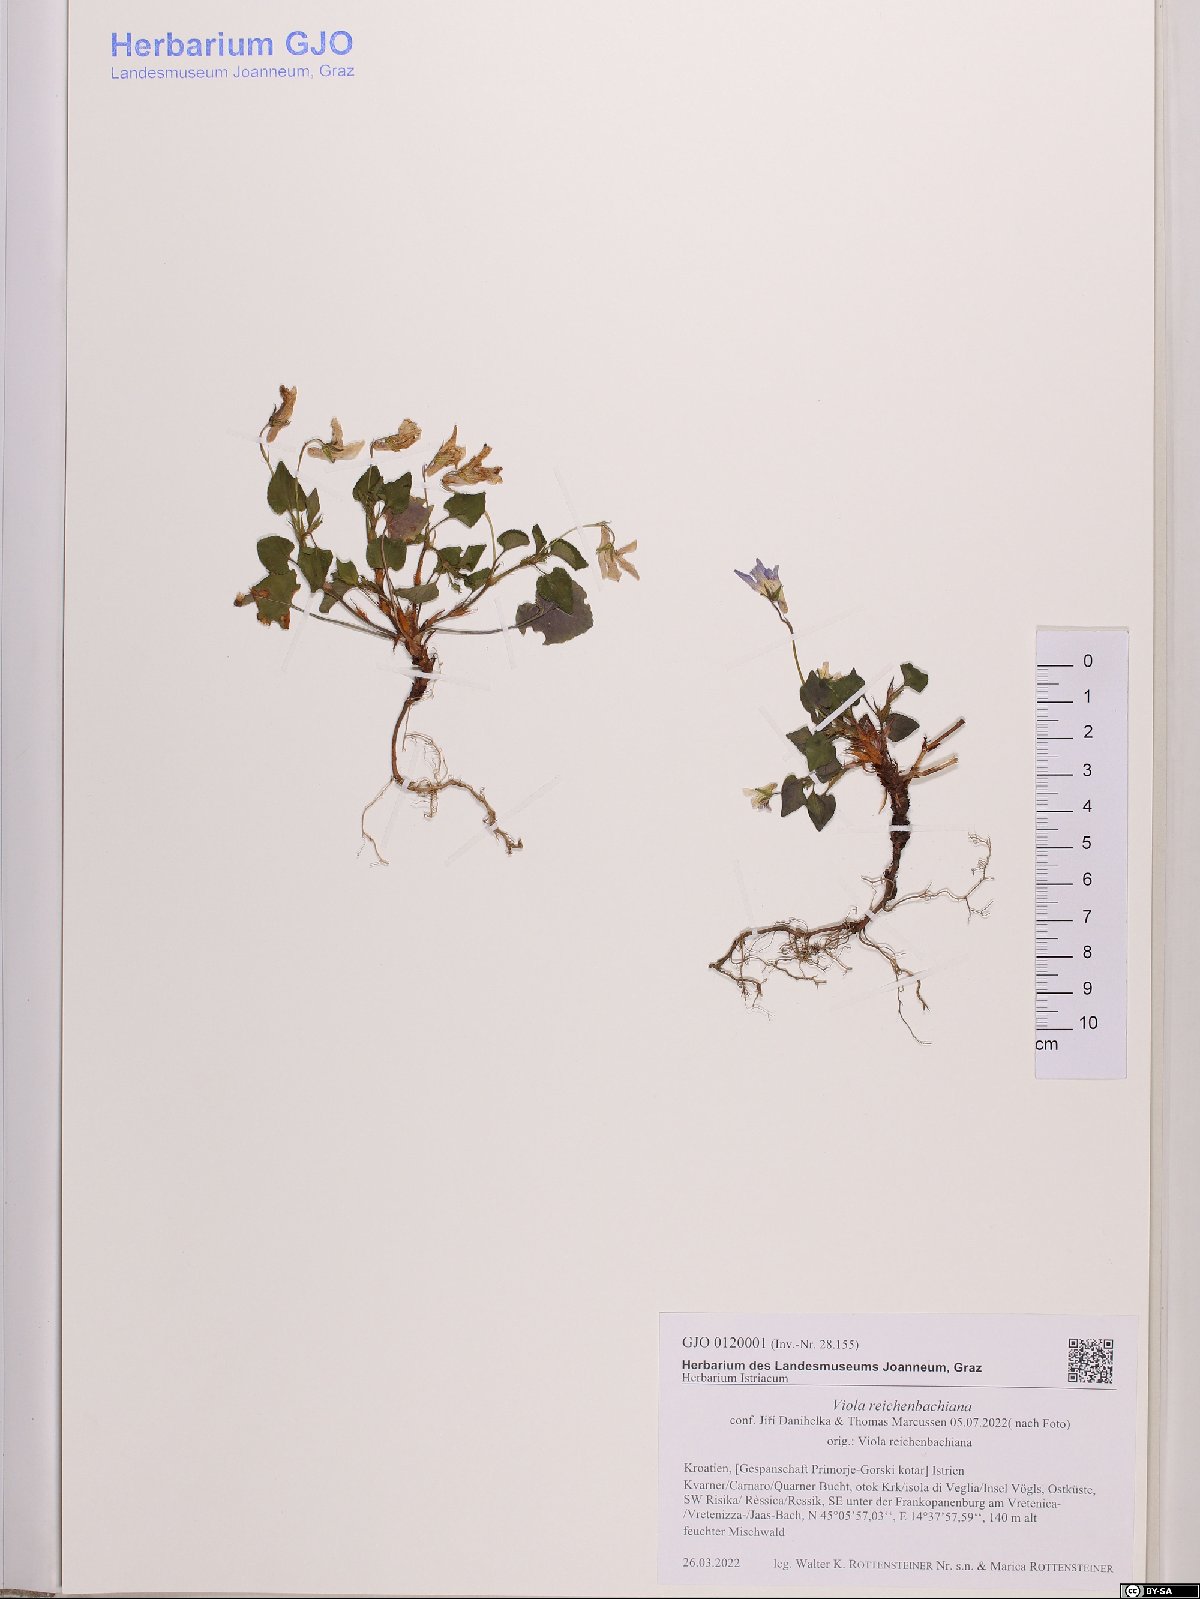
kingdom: Plantae
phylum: Tracheophyta
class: Magnoliopsida
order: Malpighiales
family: Violaceae
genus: Viola
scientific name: Viola reichenbachiana
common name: Early dog-violet
